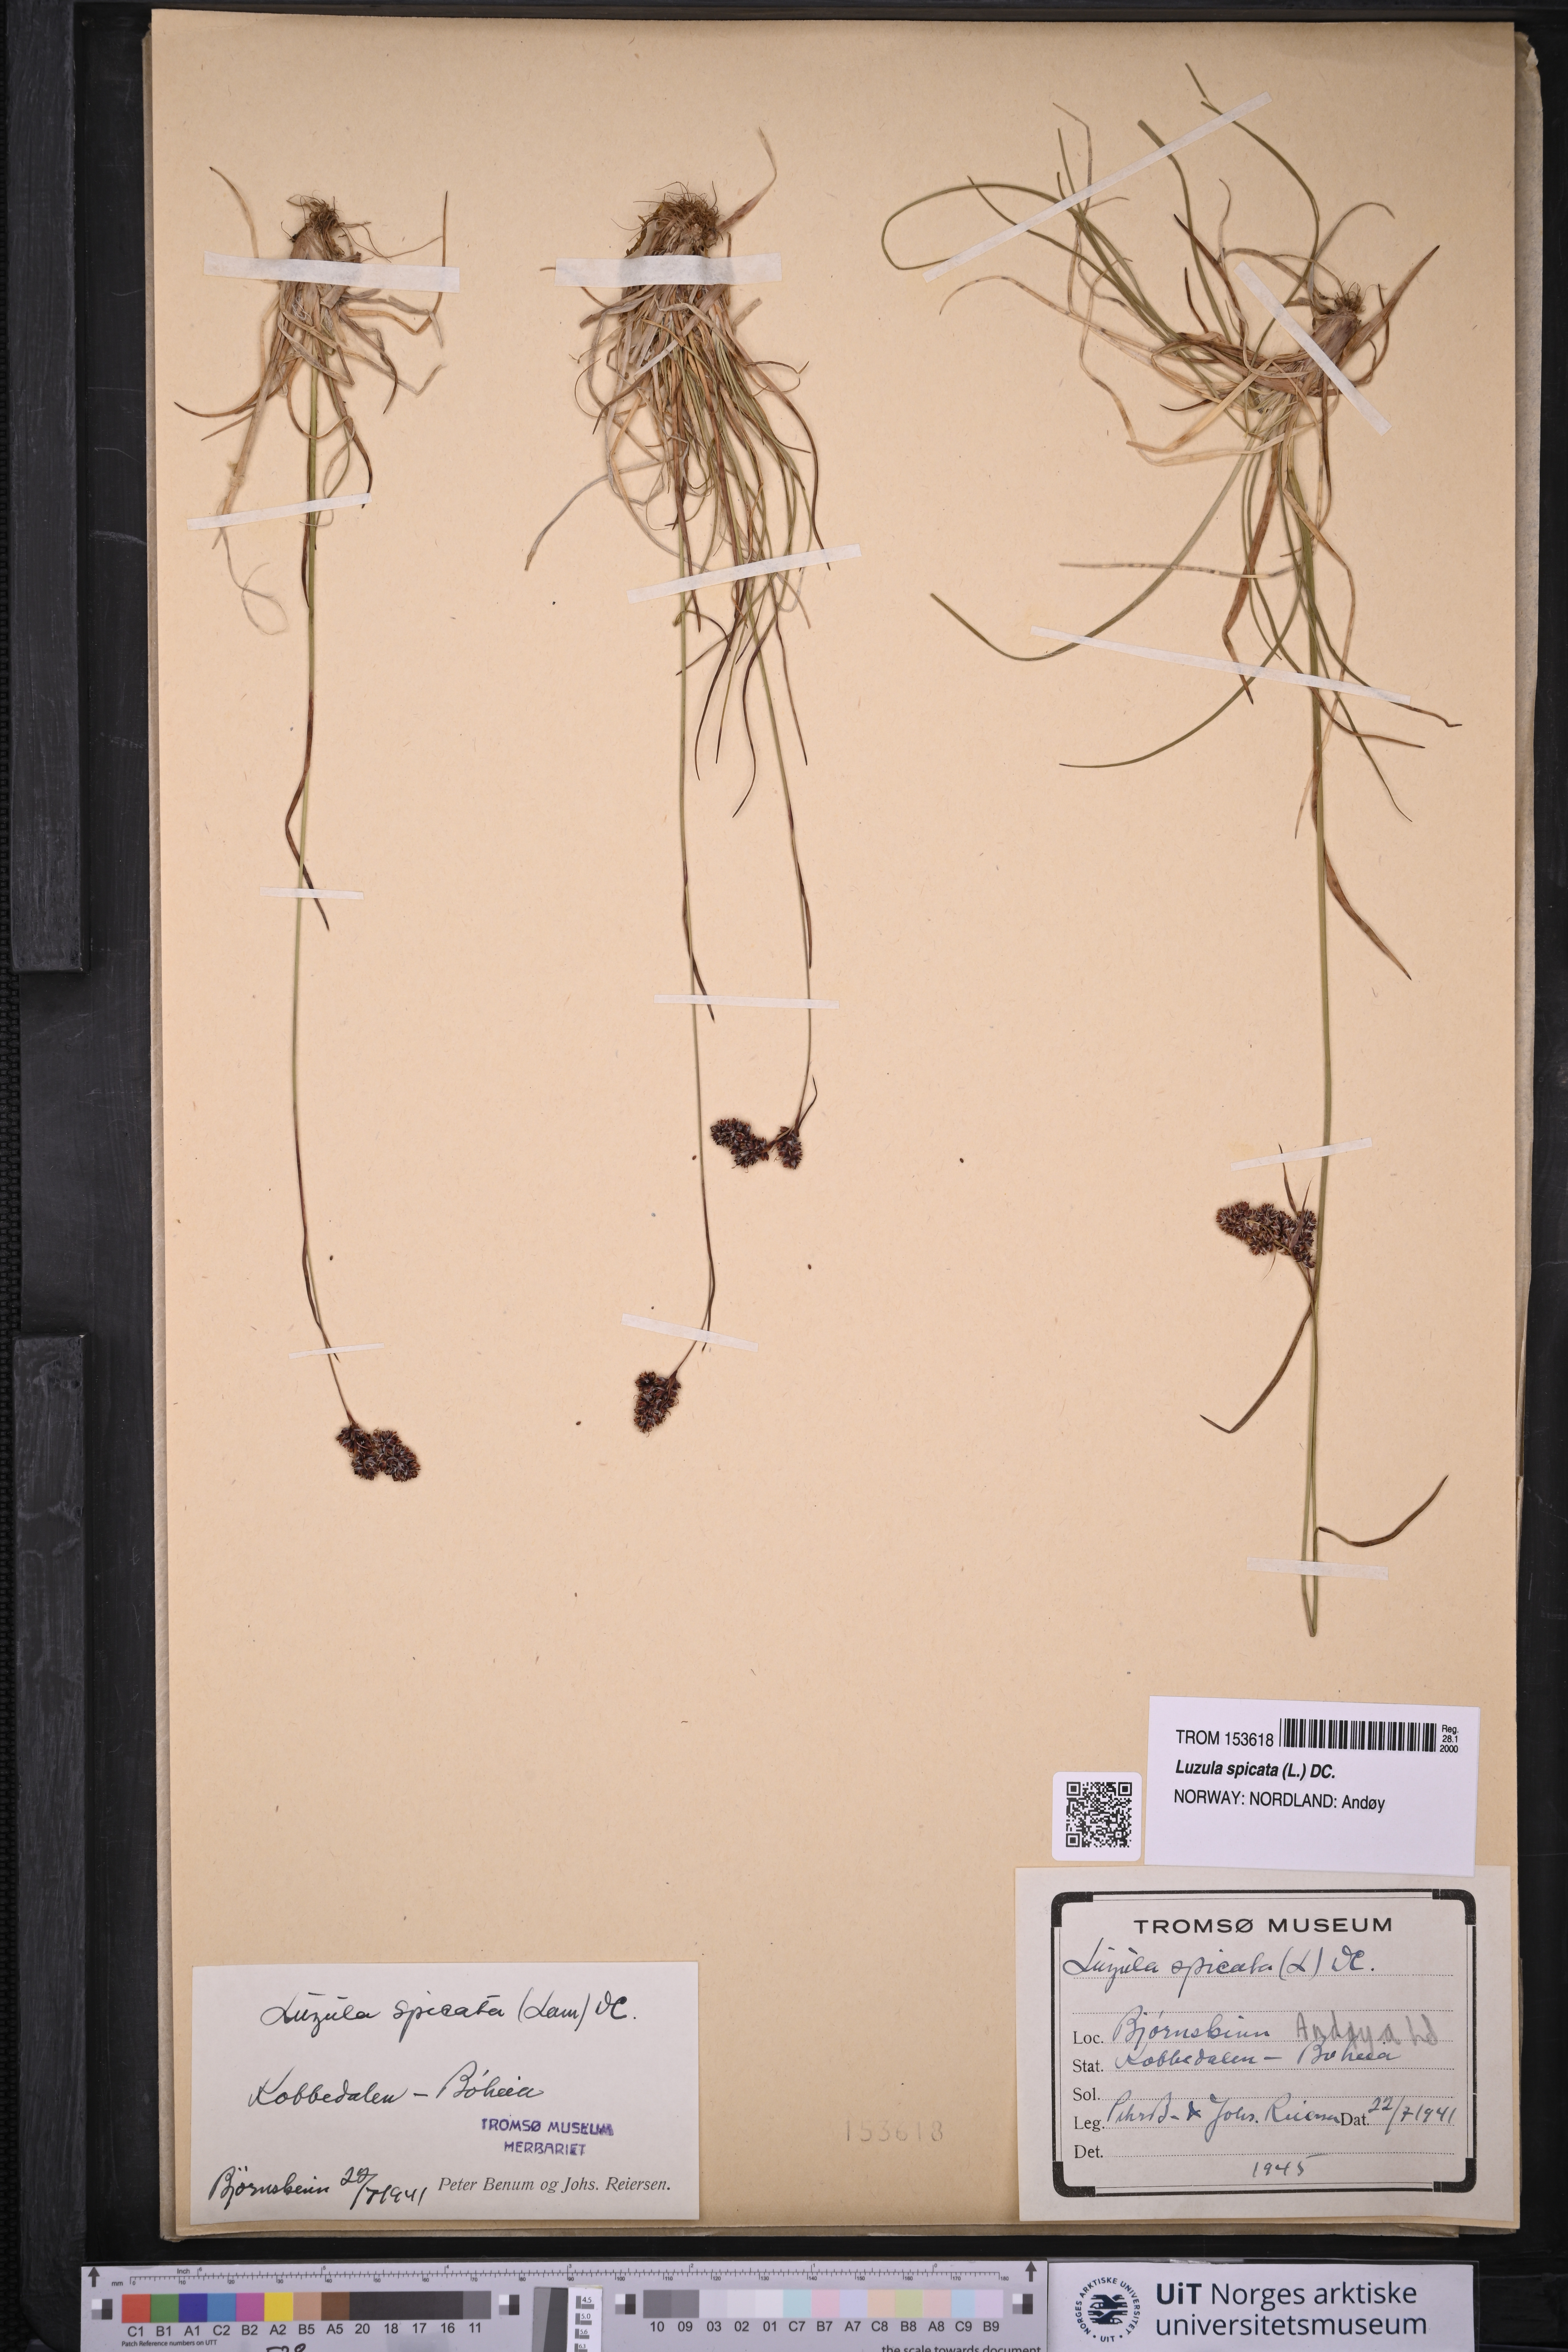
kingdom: Plantae
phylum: Tracheophyta
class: Liliopsida
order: Poales
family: Juncaceae
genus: Luzula
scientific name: Luzula spicata
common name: Spiked wood-rush
